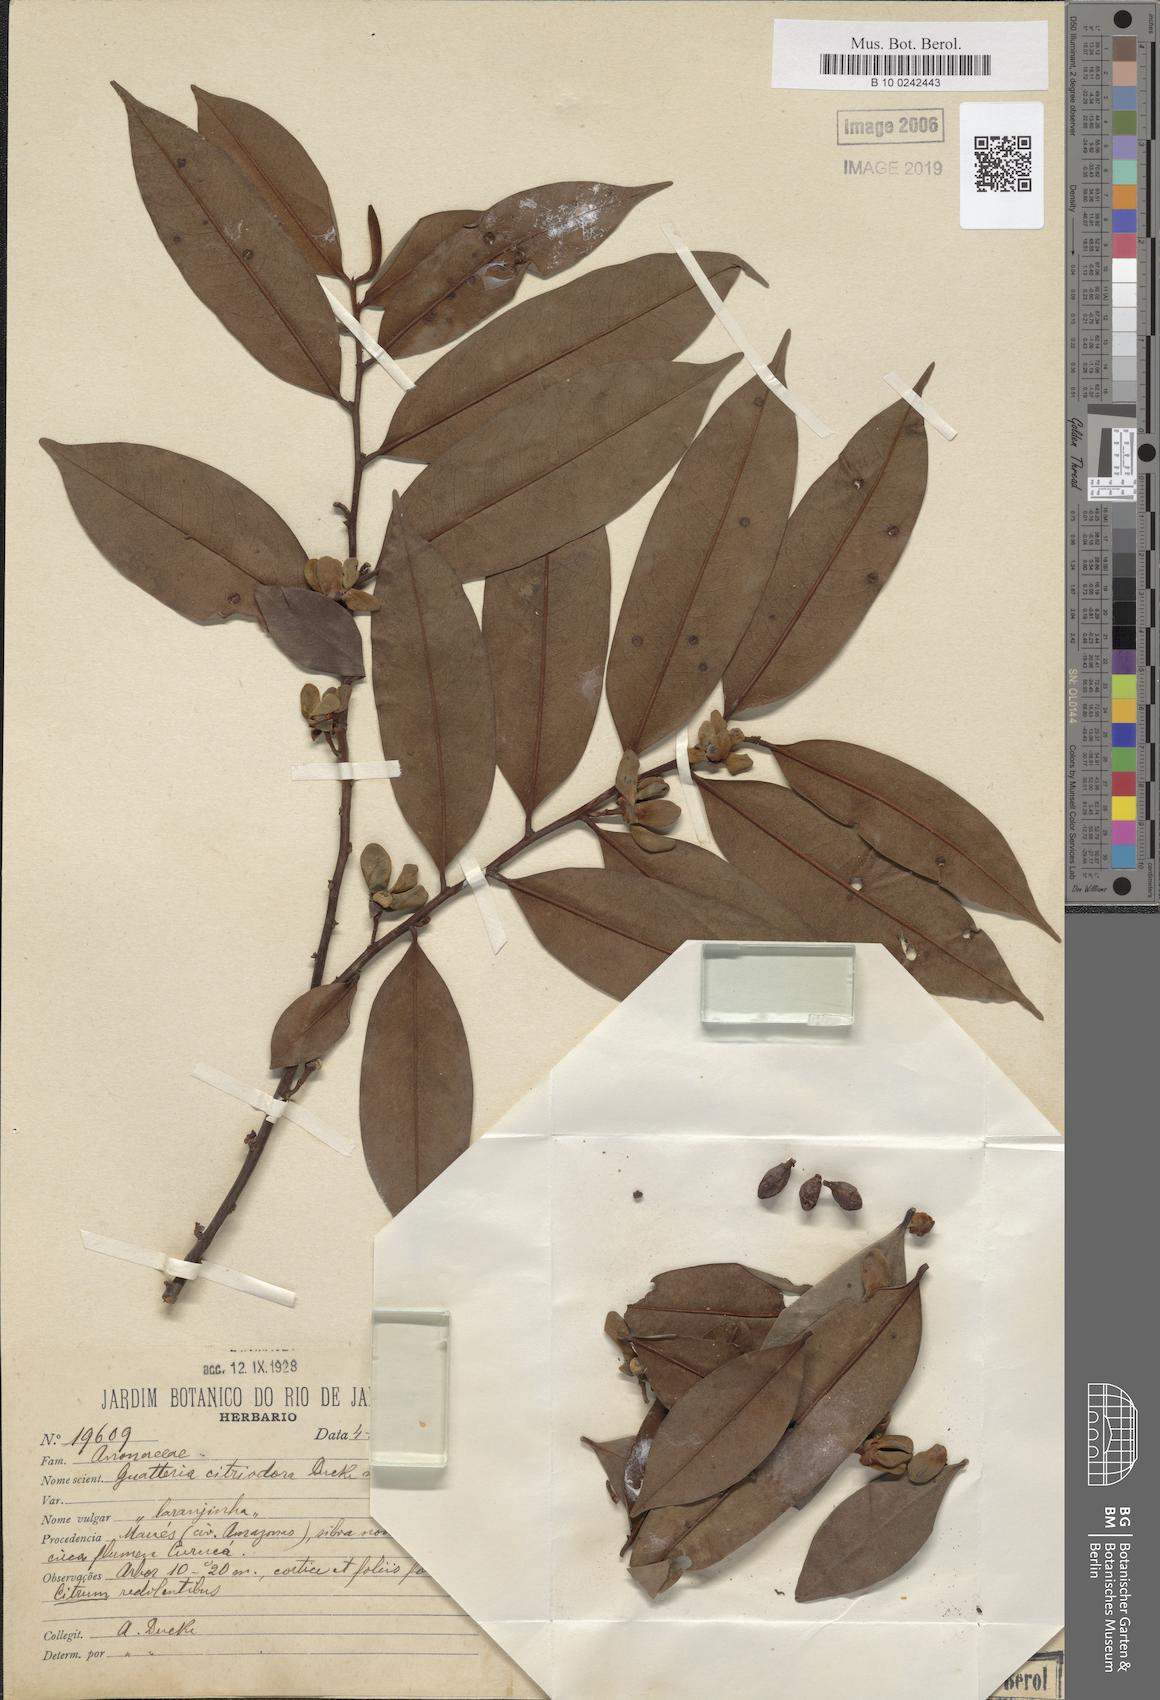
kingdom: Plantae
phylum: Tracheophyta
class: Magnoliopsida
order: Magnoliales
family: Annonaceae
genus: Guatteria
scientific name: Guatteria citriodora
